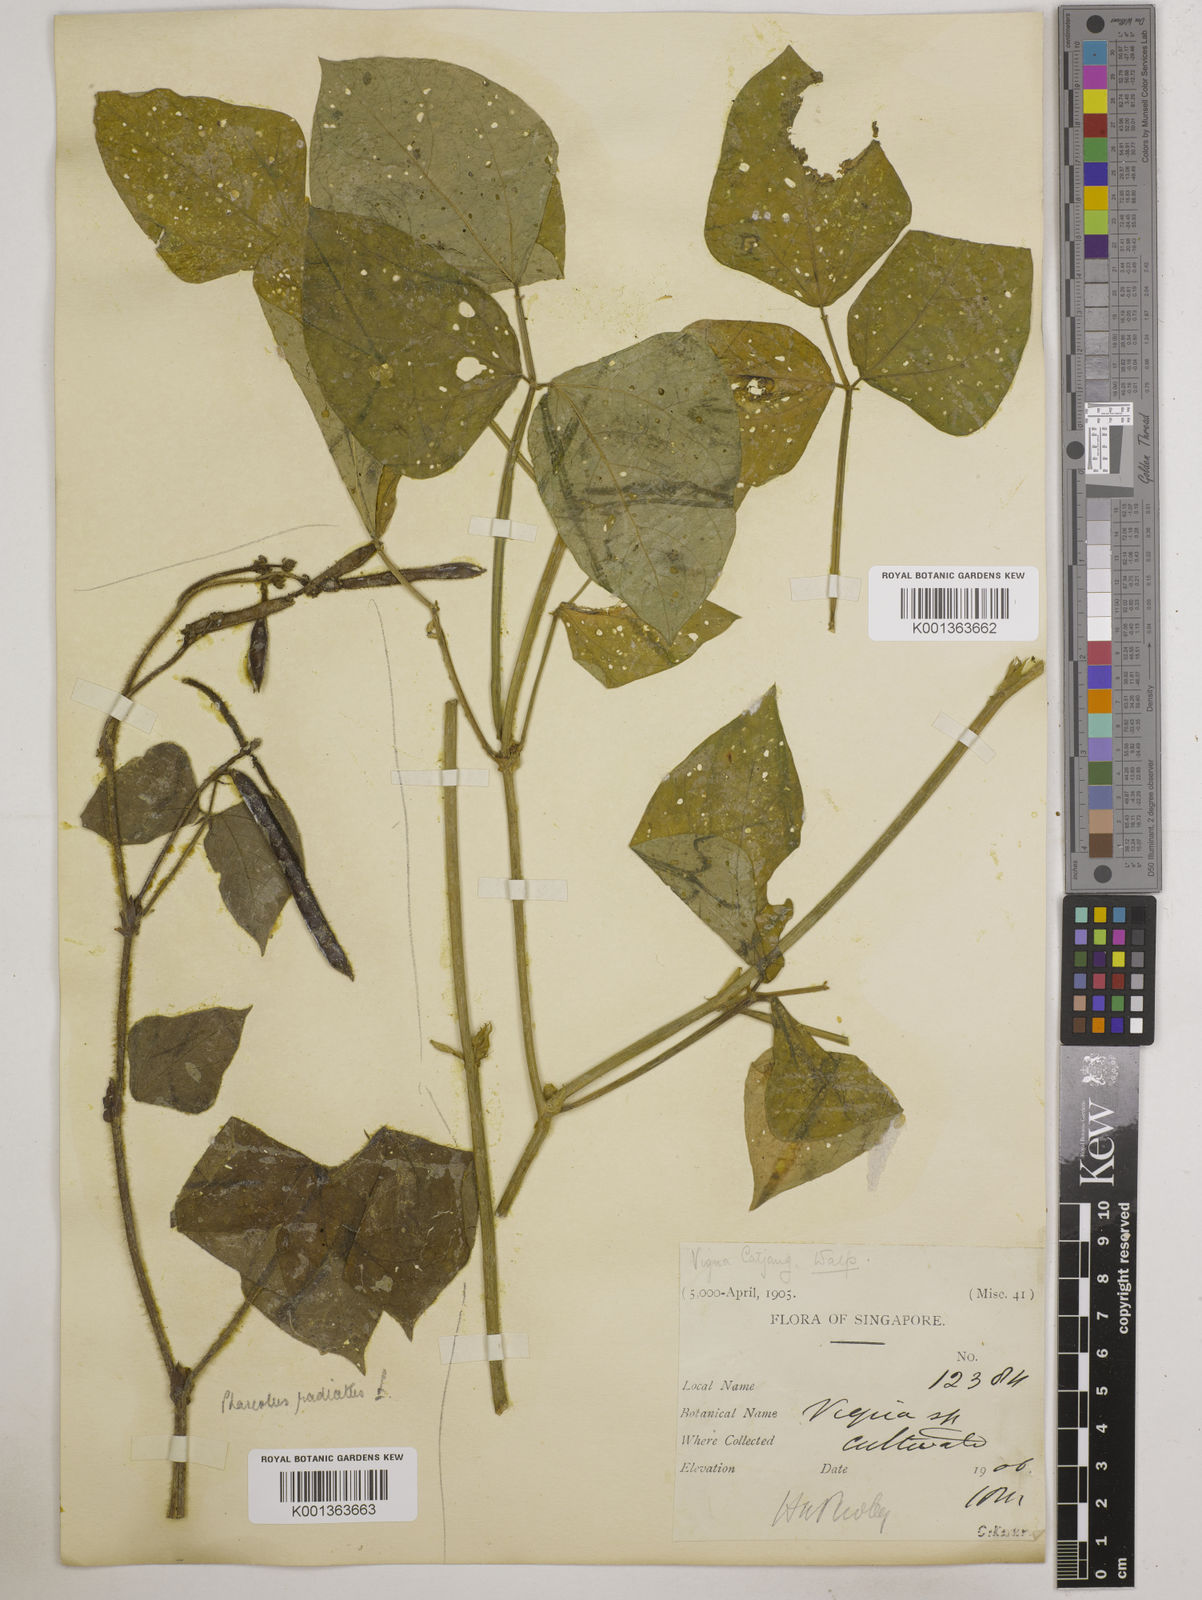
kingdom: Plantae
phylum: Tracheophyta
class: Magnoliopsida
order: Fabales
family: Fabaceae
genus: Vigna
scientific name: Vigna unguiculata
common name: Cowpea
